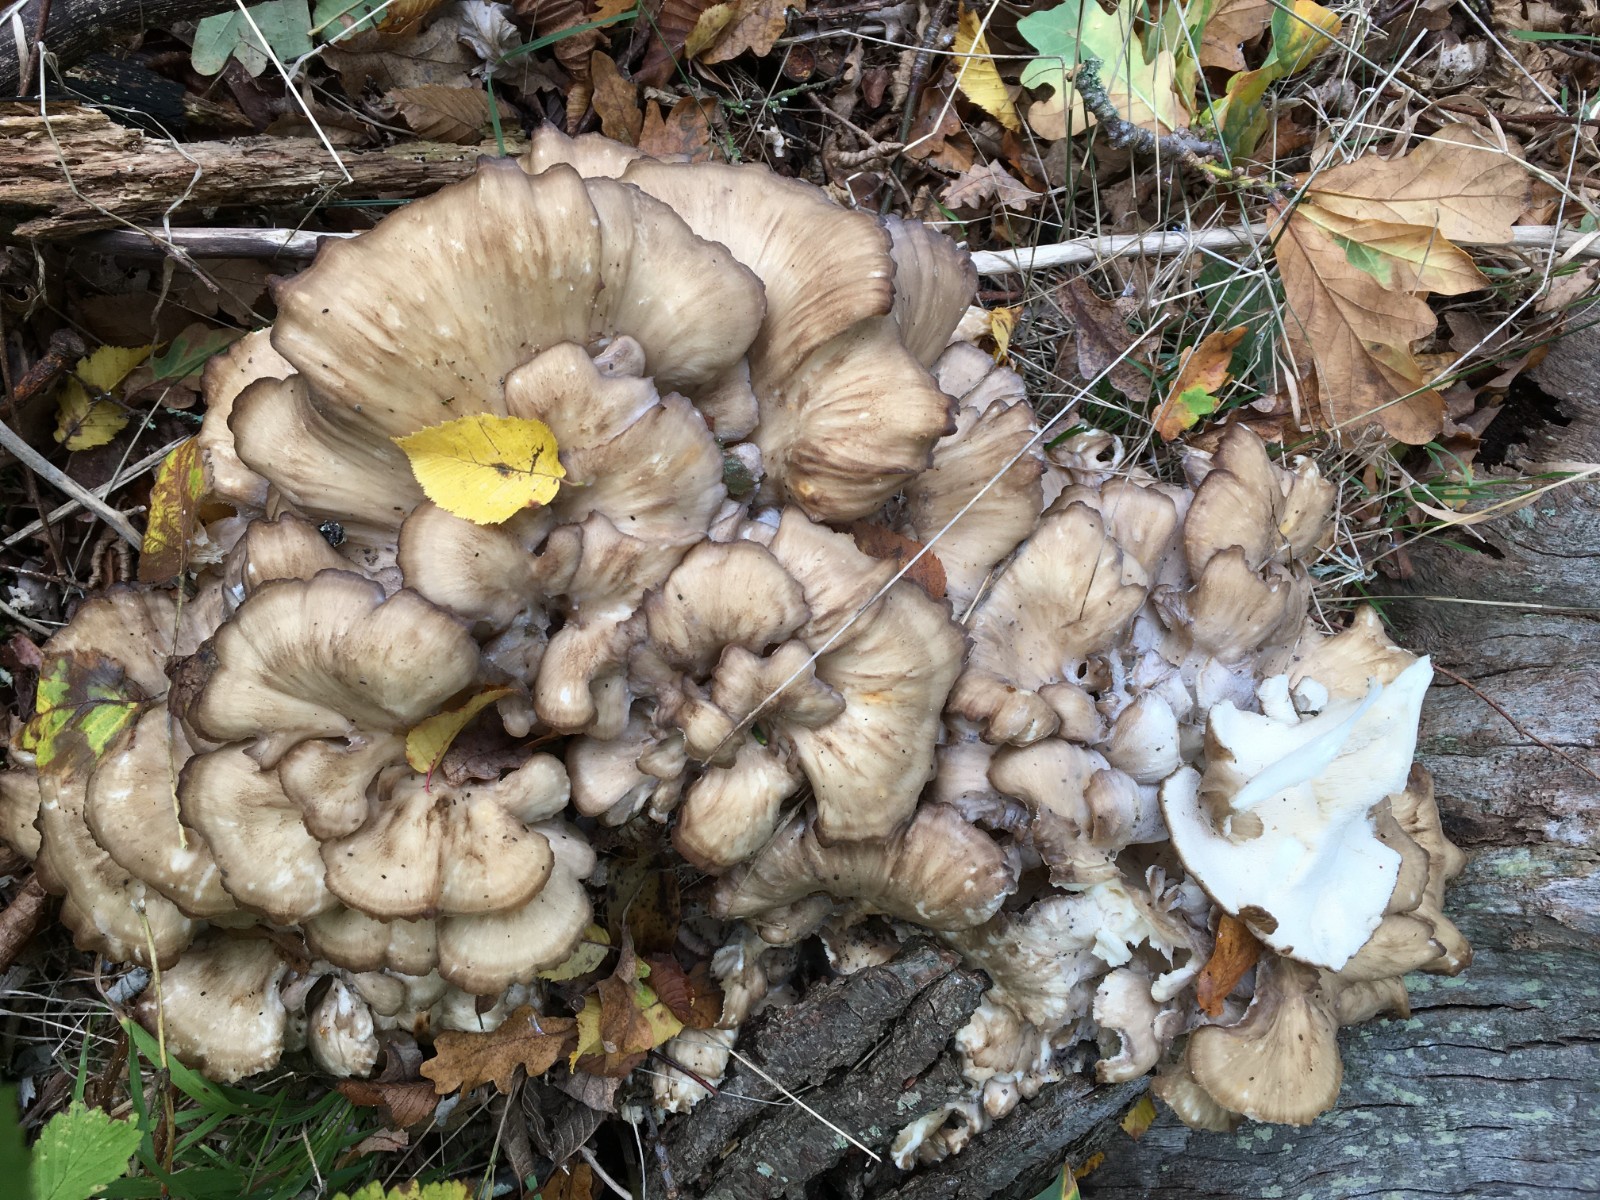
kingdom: Fungi
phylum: Basidiomycota
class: Agaricomycetes
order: Polyporales
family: Grifolaceae
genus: Grifola
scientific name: Grifola frondosa
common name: tueporesvamp
